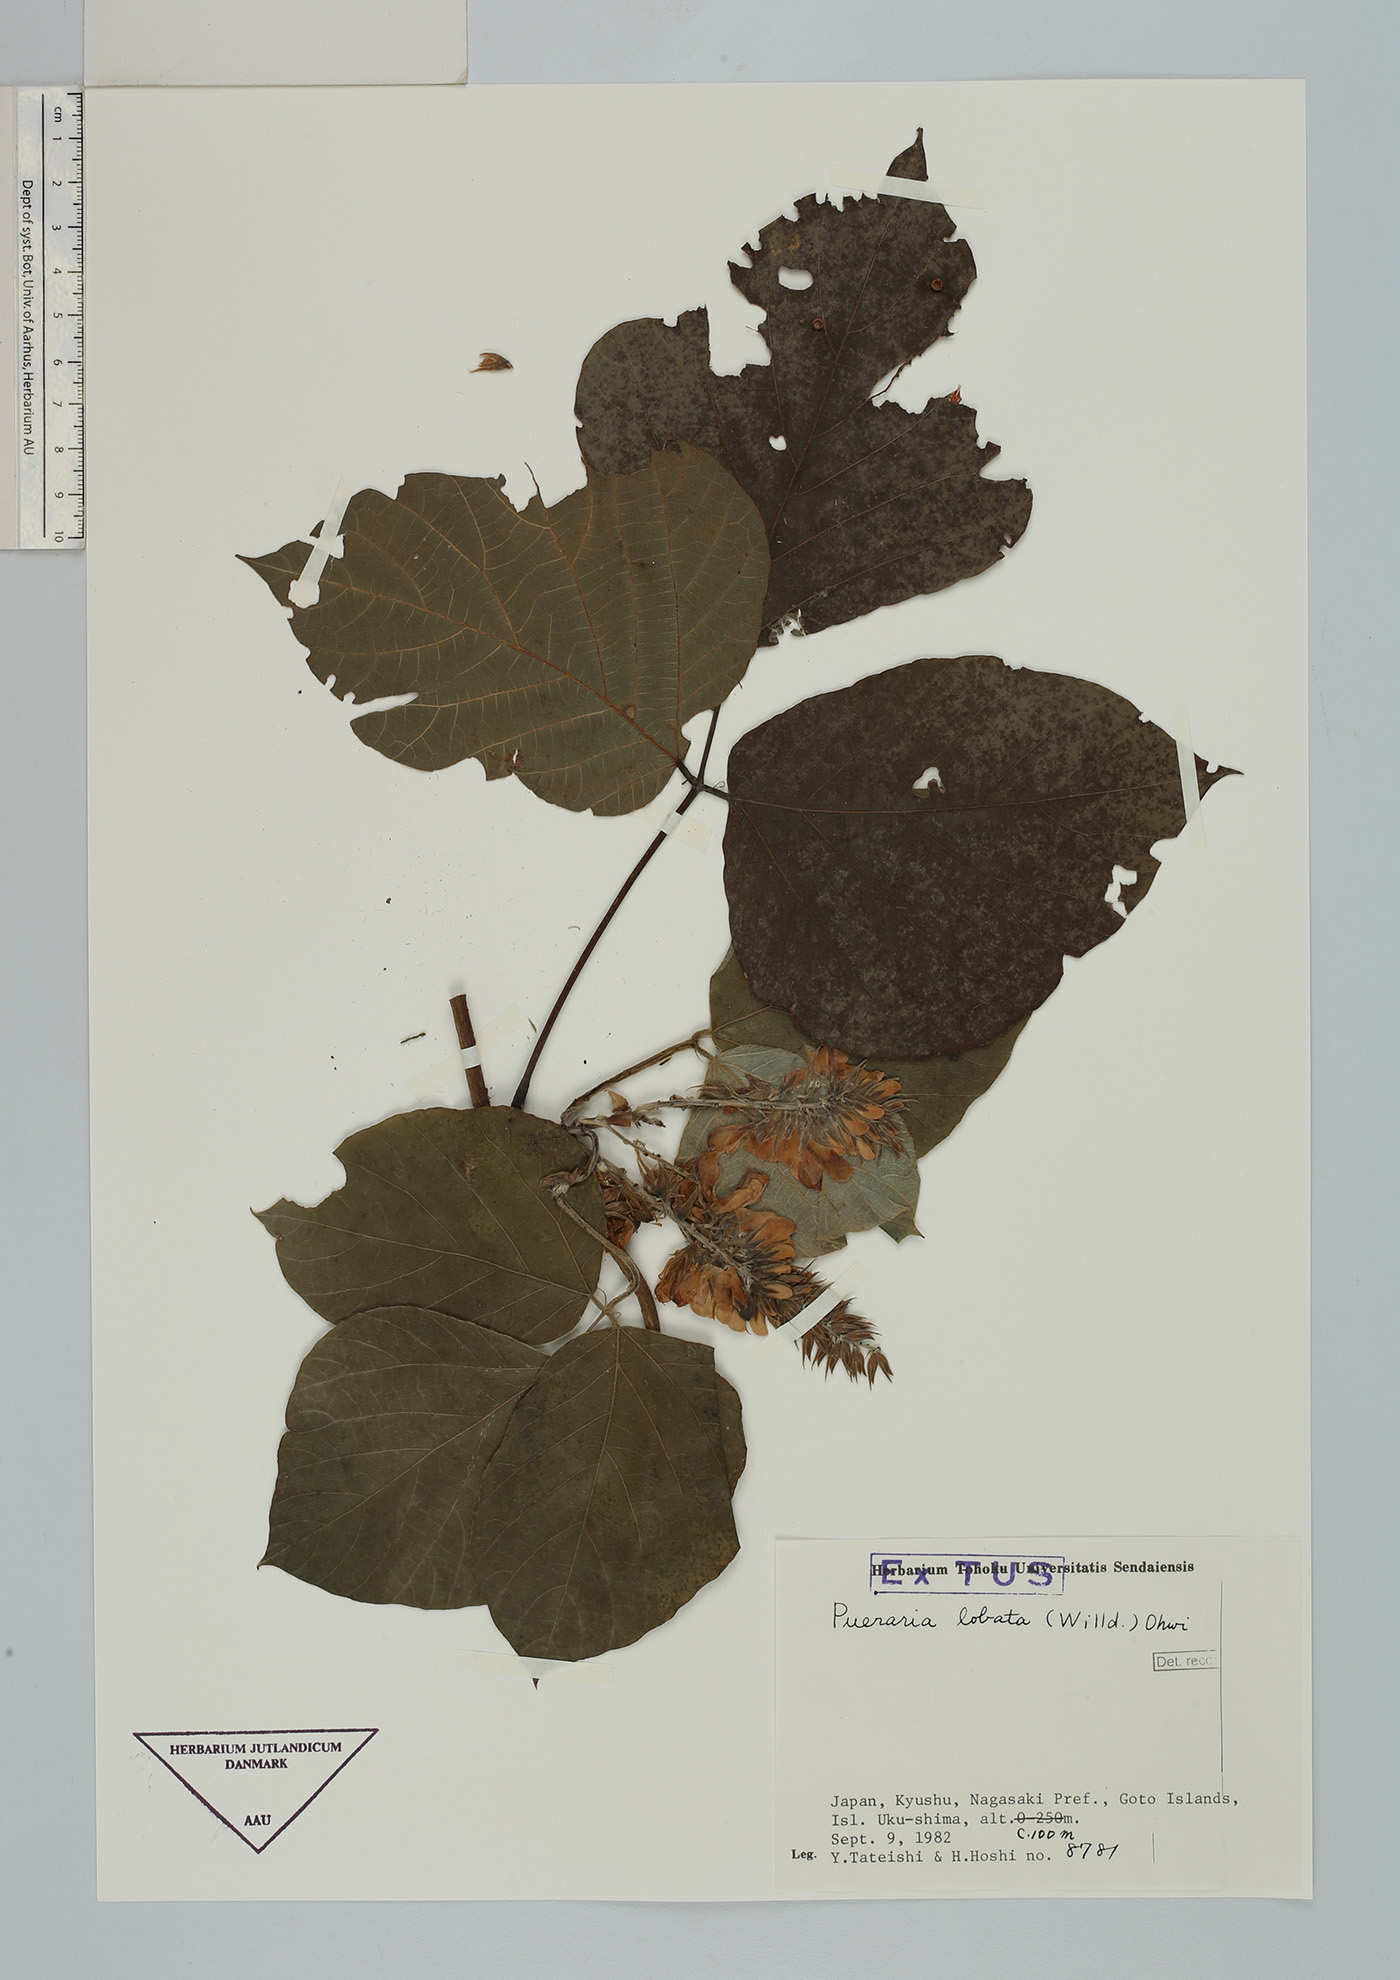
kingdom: Plantae
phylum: Tracheophyta
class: Magnoliopsida
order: Fabales
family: Fabaceae
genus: Pueraria
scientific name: Pueraria montana
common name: Kudzu
